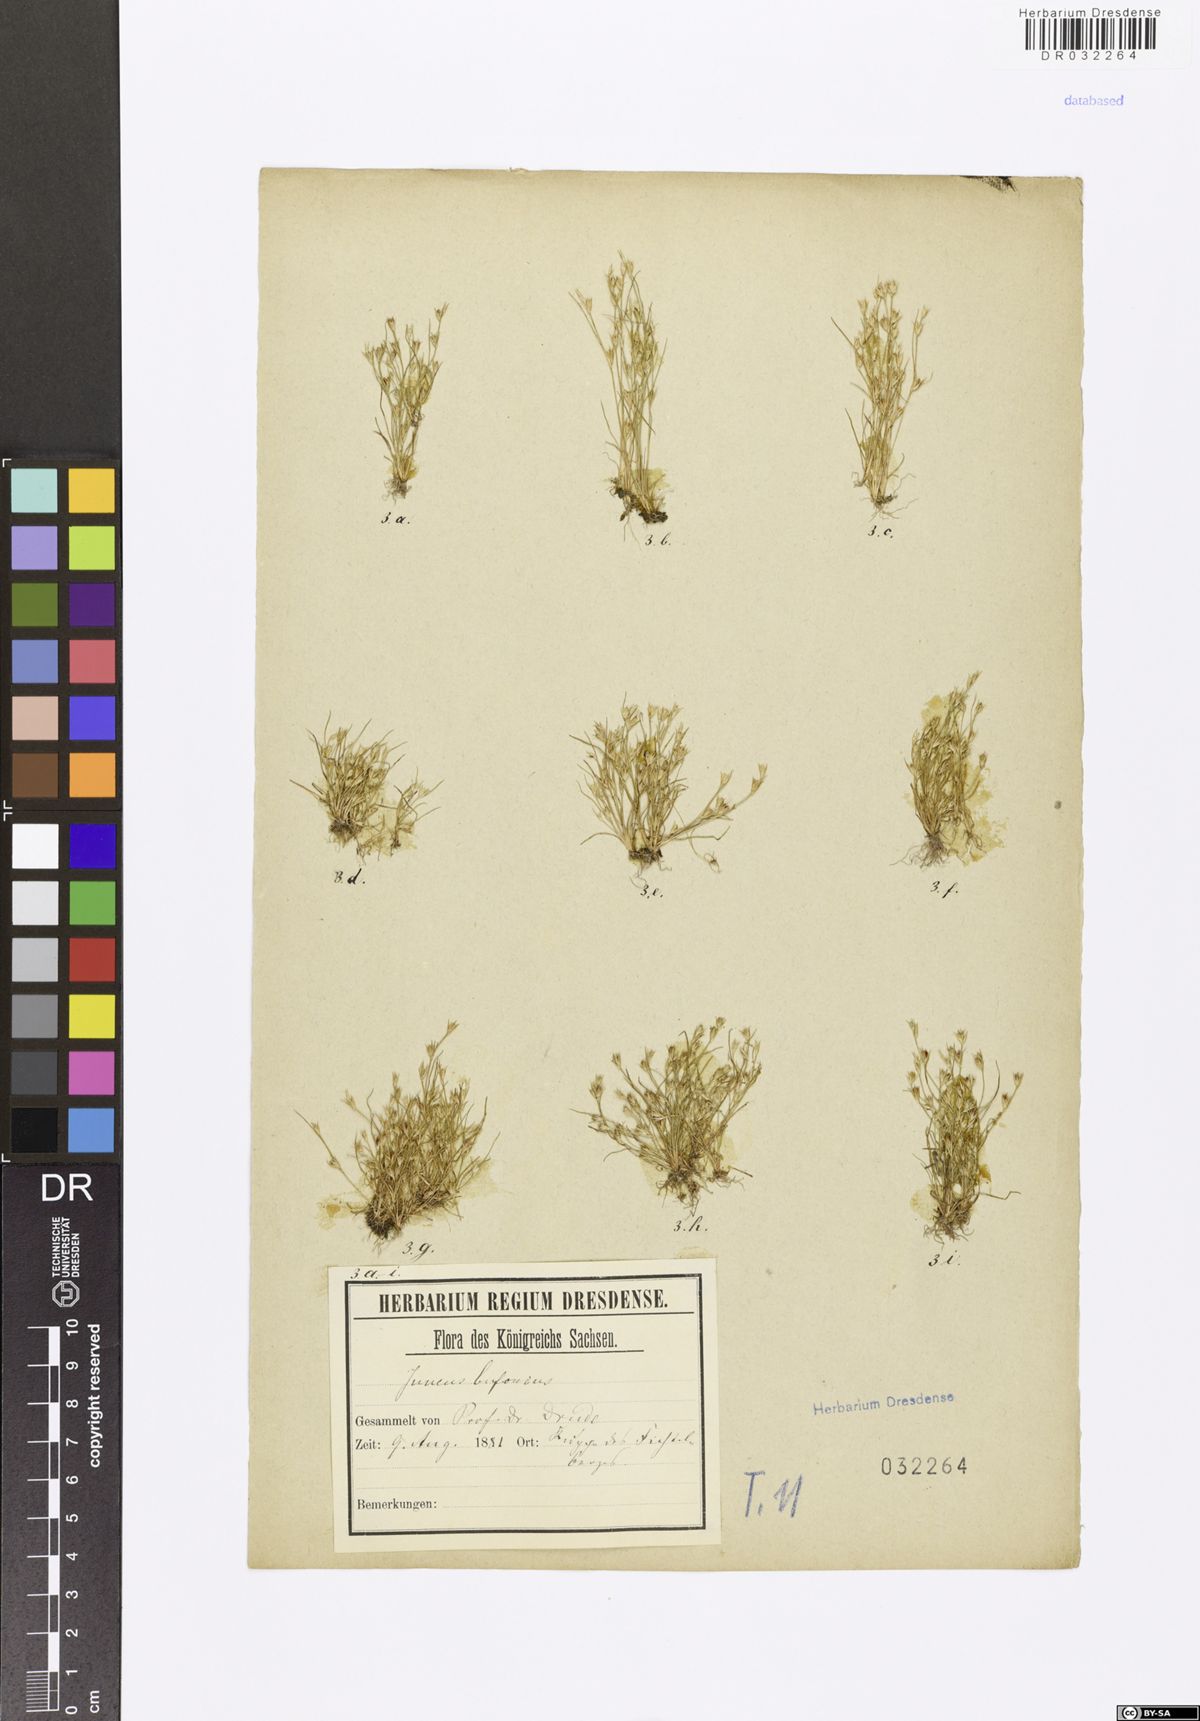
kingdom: Plantae
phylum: Tracheophyta
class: Liliopsida
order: Poales
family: Juncaceae
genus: Juncus
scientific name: Juncus bufonius
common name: Toad rush
